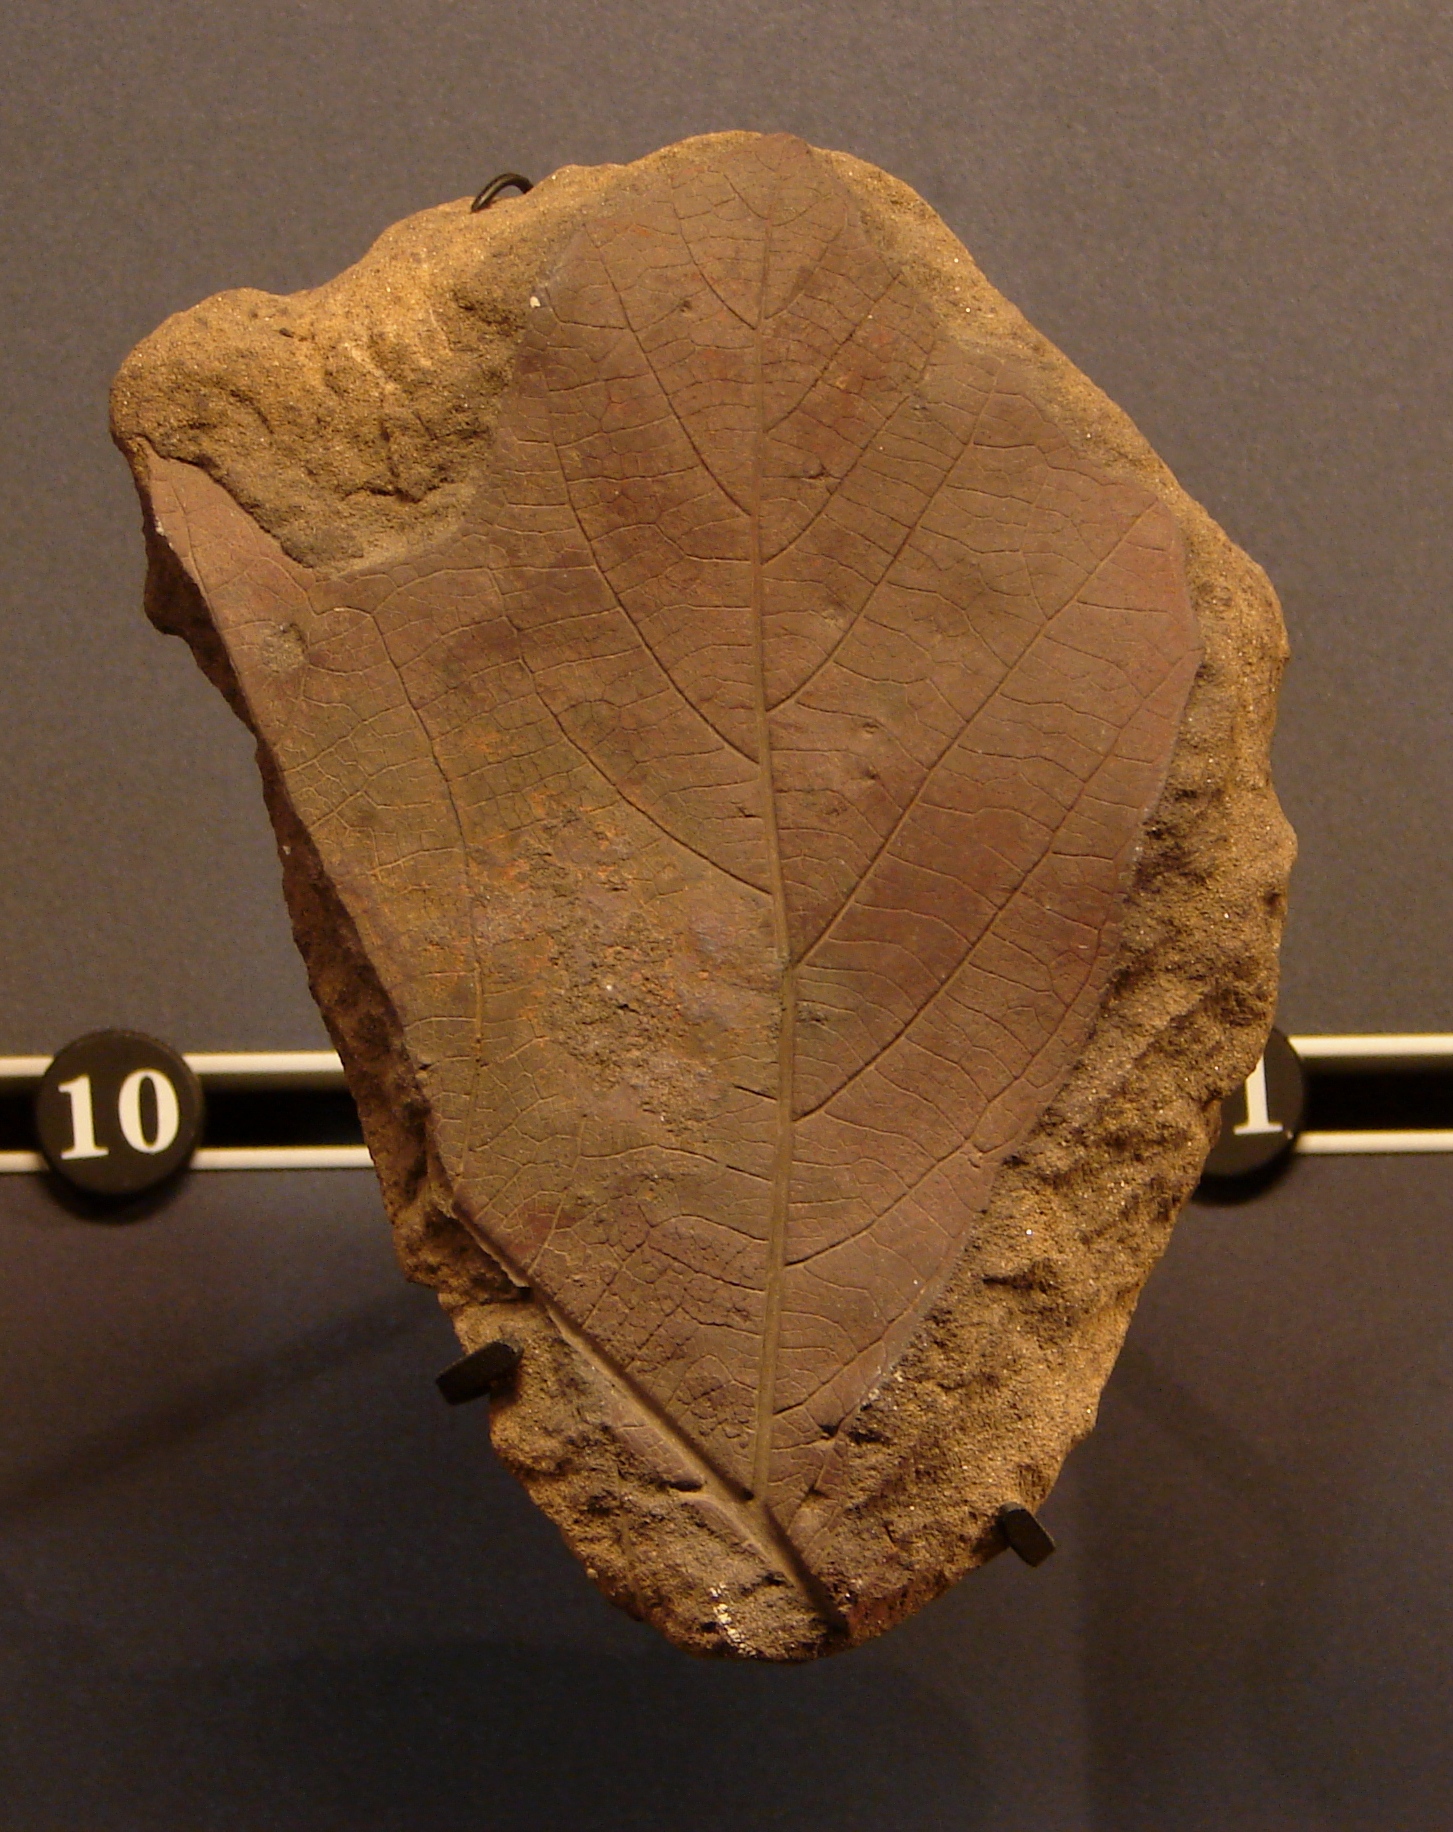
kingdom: Plantae
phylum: Tracheophyta
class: Magnoliopsida
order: Laurales
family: Lauraceae
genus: Sassafras
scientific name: Sassafras
